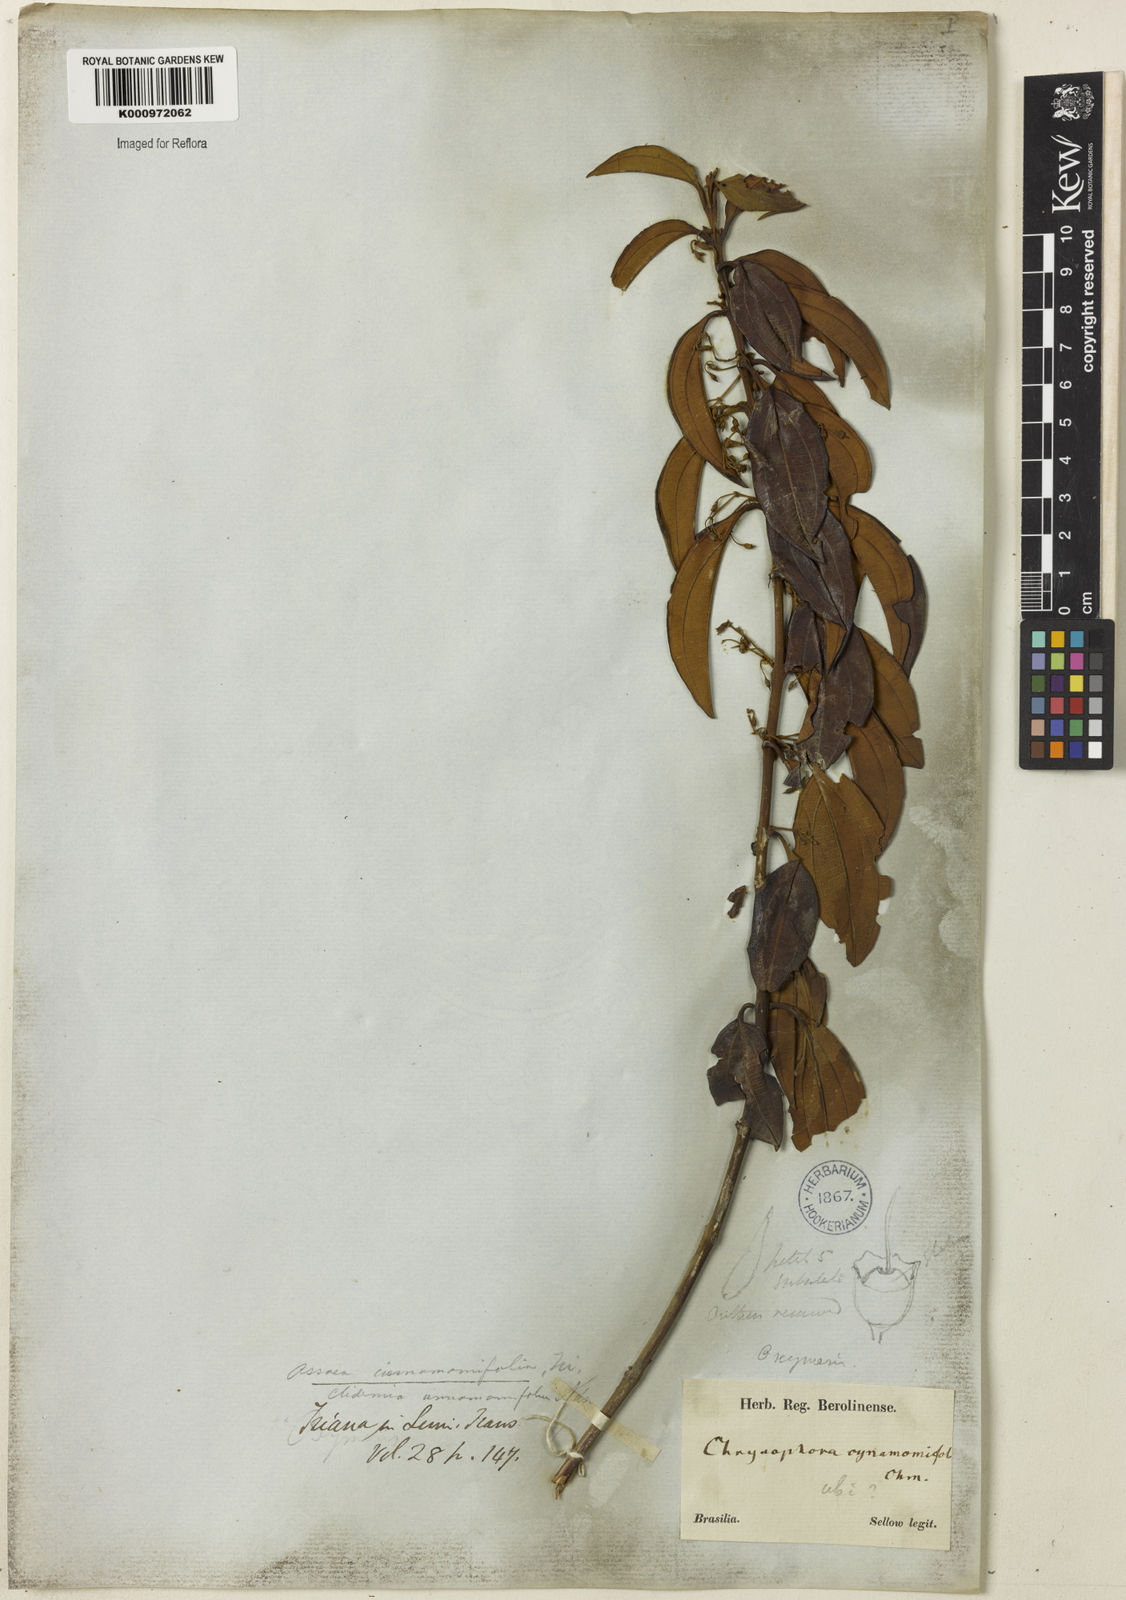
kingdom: Plantae
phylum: Tracheophyta
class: Magnoliopsida
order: Myrtales
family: Melastomataceae
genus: Miconia
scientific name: Miconia leacinnamomifolia
